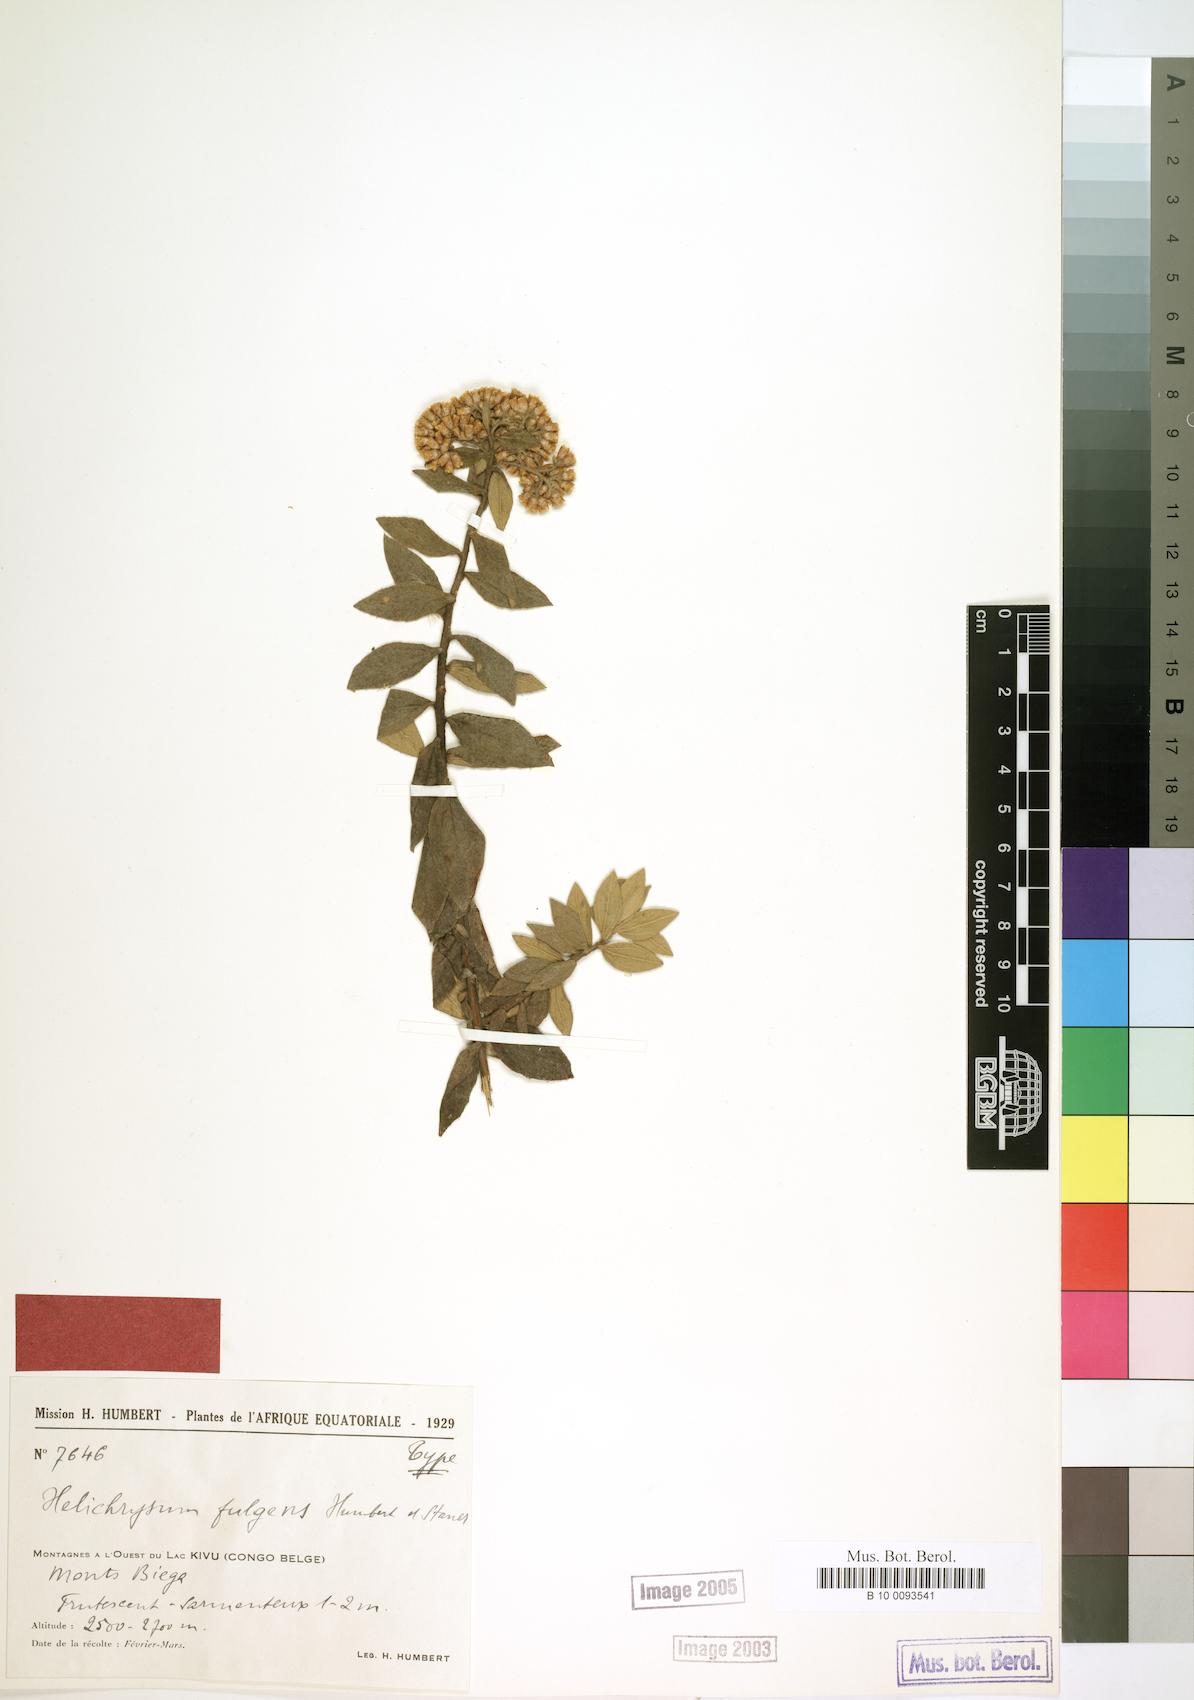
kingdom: Plantae
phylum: Tracheophyta
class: Magnoliopsida
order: Asterales
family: Asteraceae
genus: Helichrysum
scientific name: Helichrysum fulgens
